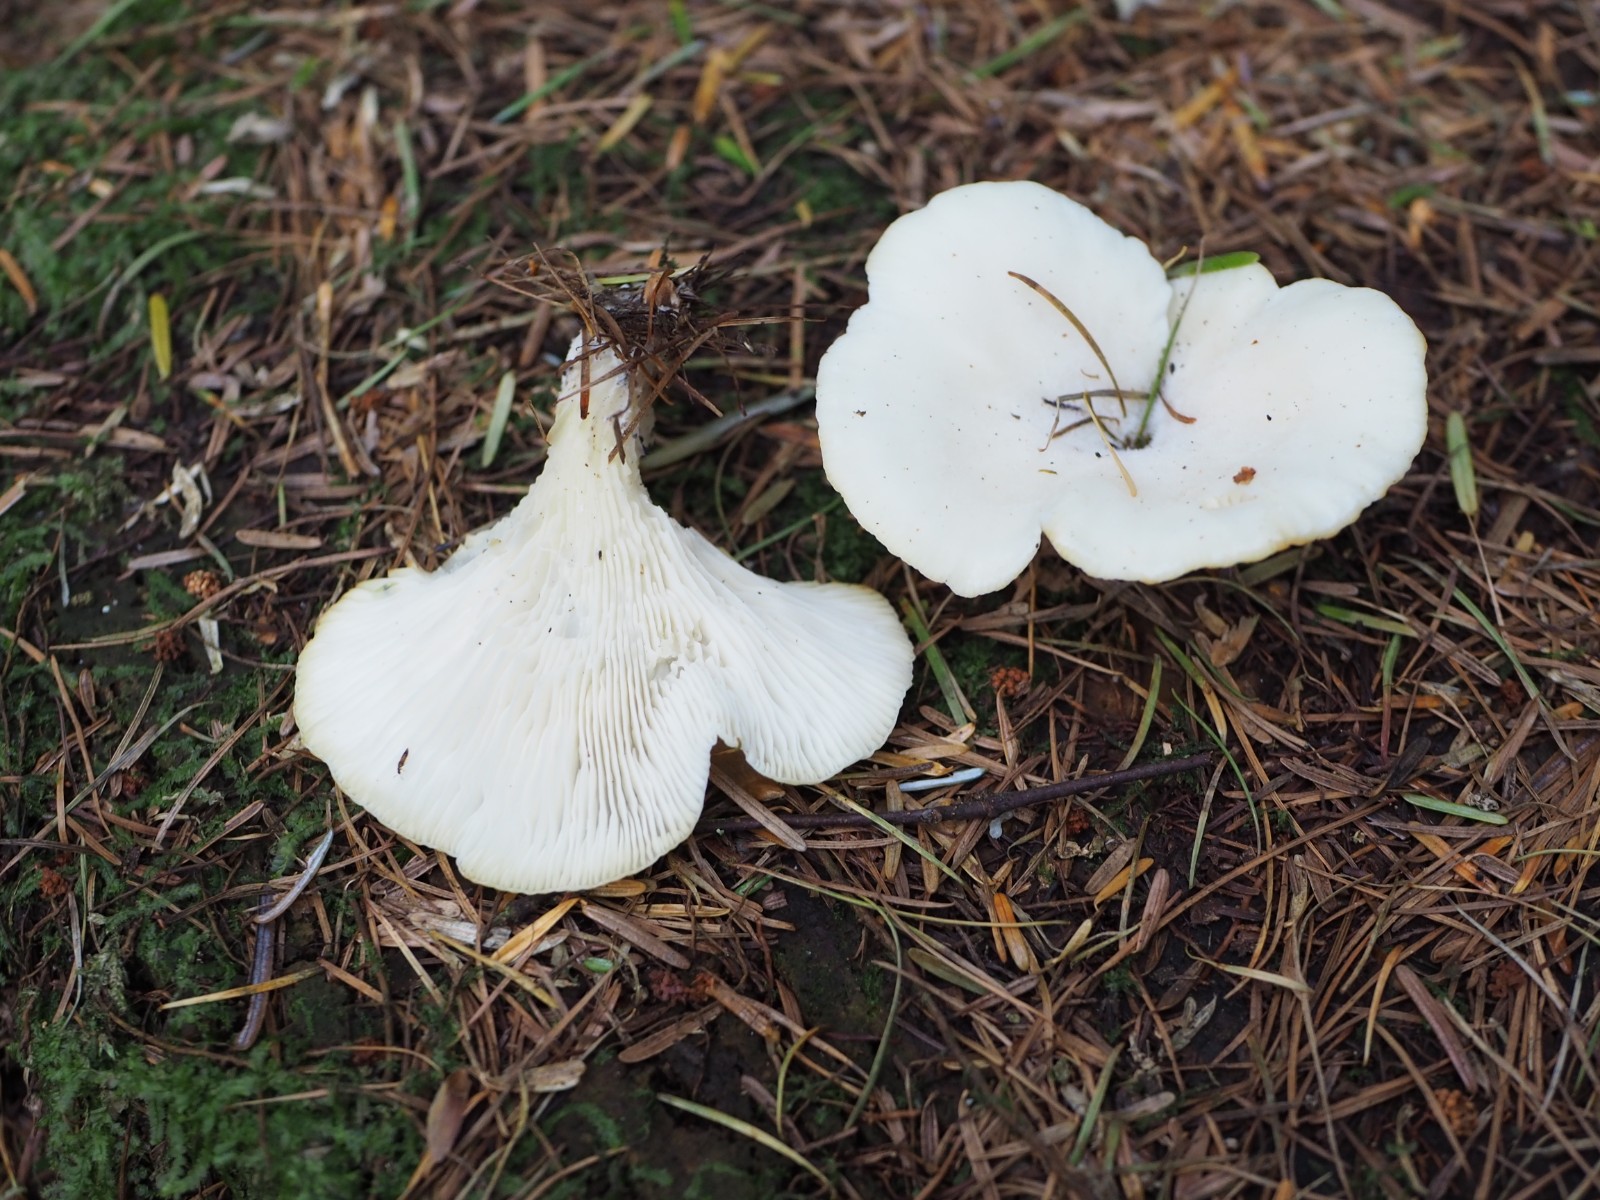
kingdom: Fungi
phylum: Basidiomycota
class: Agaricomycetes
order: Agaricales
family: Marasmiaceae
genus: Pleurocybella
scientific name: Pleurocybella porrigens
